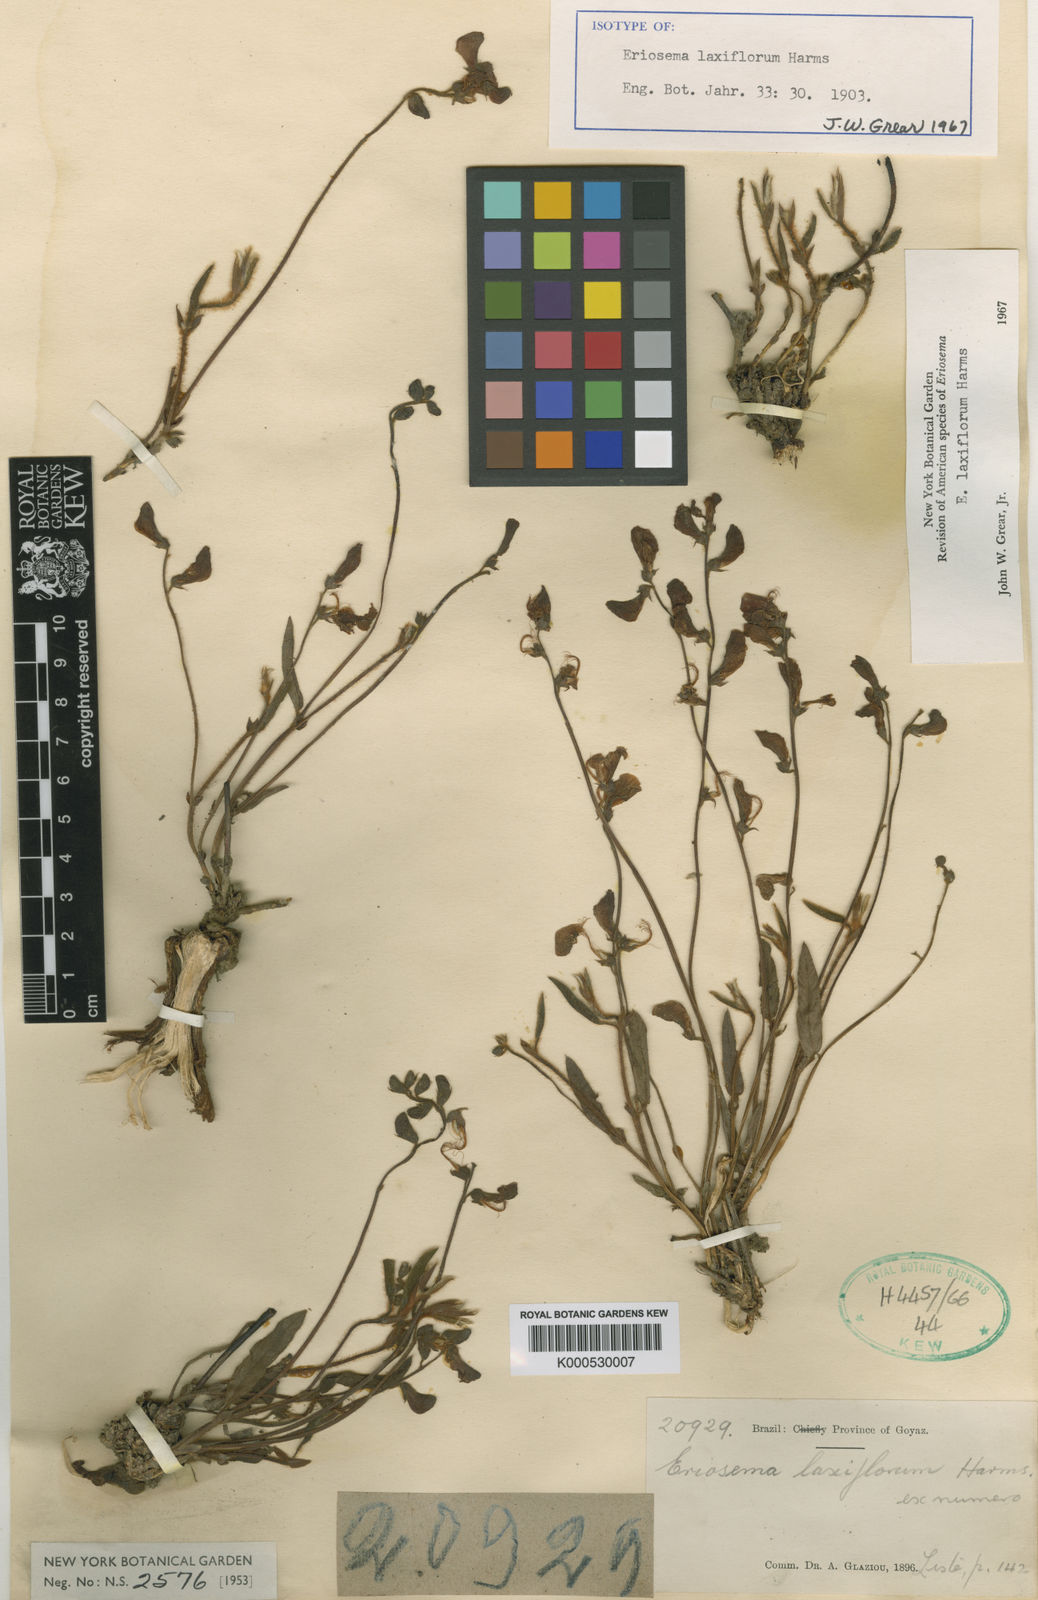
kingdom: Plantae
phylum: Tracheophyta
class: Magnoliopsida
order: Fabales
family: Fabaceae
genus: Eriosema
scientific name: Eriosema laxiflorum
